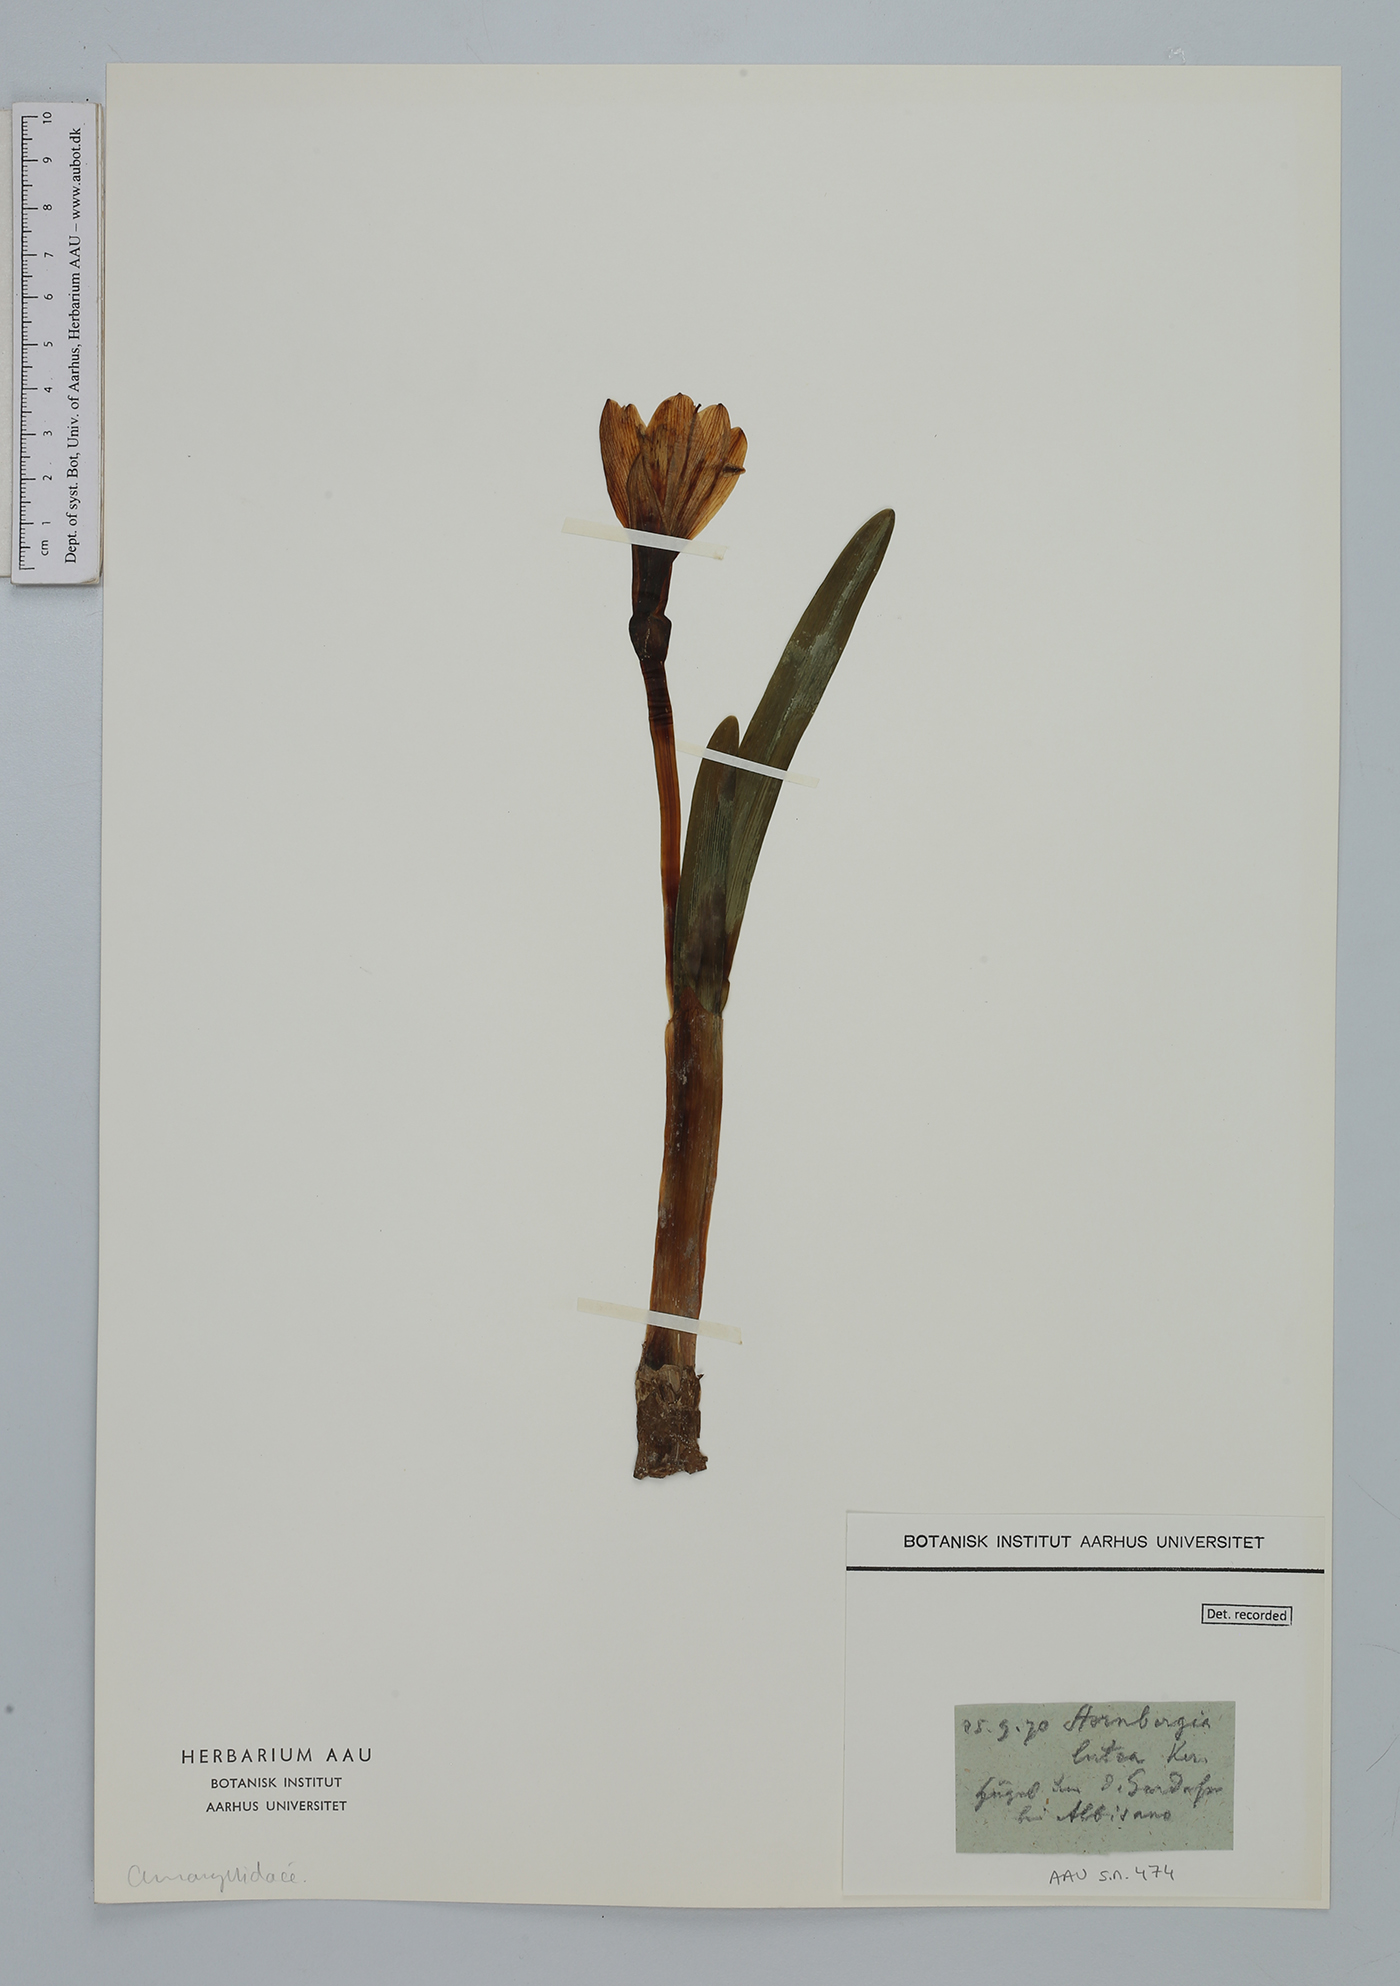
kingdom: Plantae
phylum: Tracheophyta
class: Liliopsida
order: Asparagales
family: Amaryllidaceae
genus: Sternbergia
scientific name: Sternbergia lutea
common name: Winter daffodil
